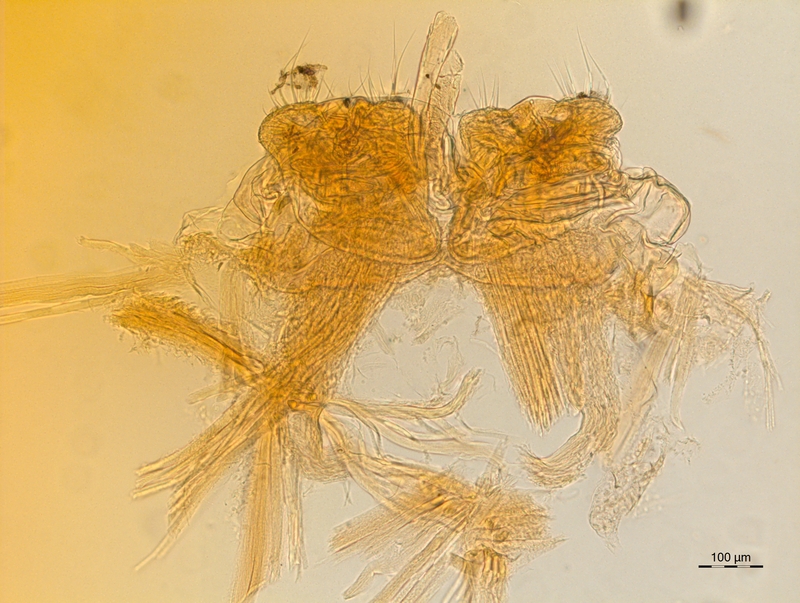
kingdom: Animalia
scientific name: Animalia
